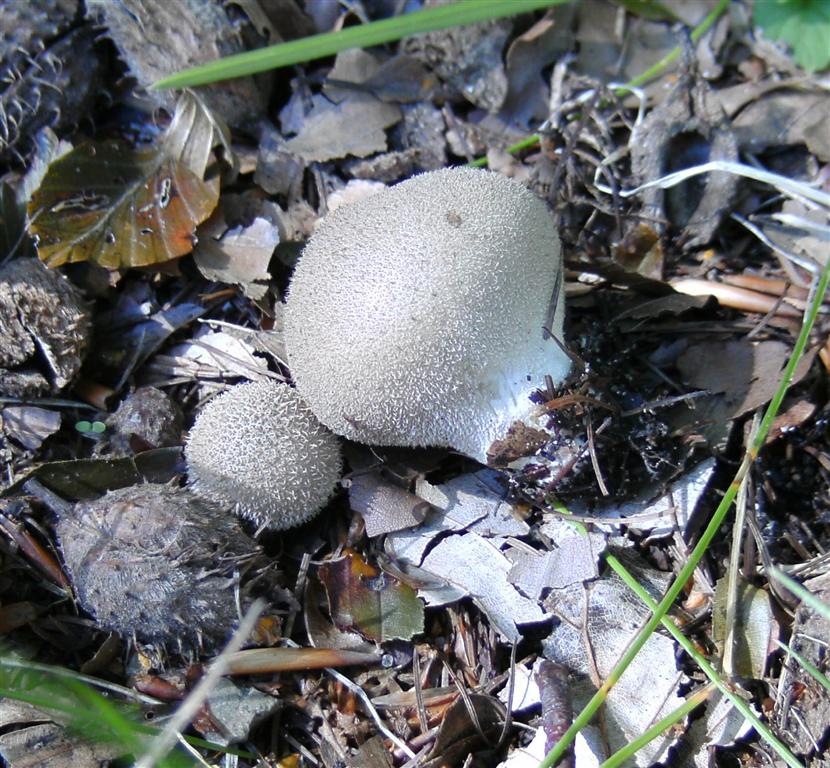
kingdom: Fungi
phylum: Basidiomycota
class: Agaricomycetes
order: Agaricales
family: Lycoperdaceae
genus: Lycoperdon
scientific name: Lycoperdon molle
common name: skov-støvbold
